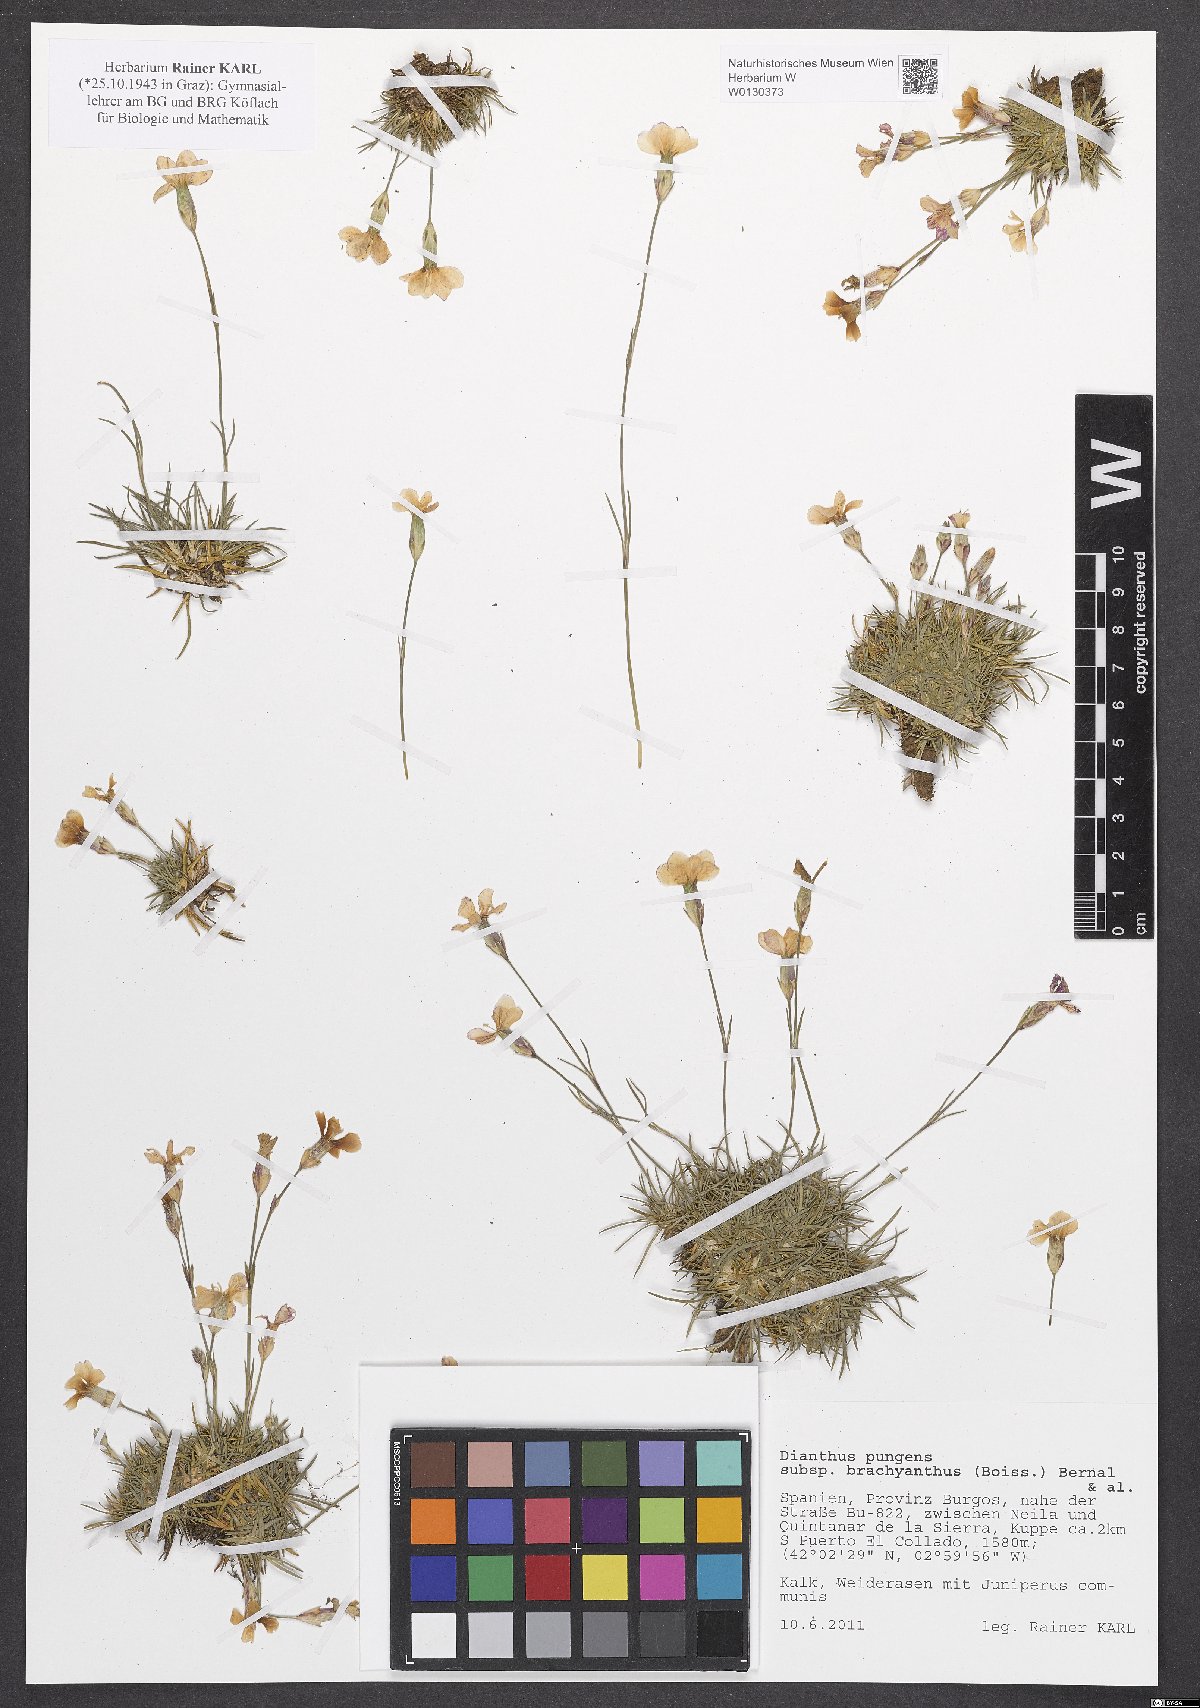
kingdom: Plantae
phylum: Tracheophyta
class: Magnoliopsida
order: Caryophyllales
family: Caryophyllaceae
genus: Dianthus
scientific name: Dianthus pungens
